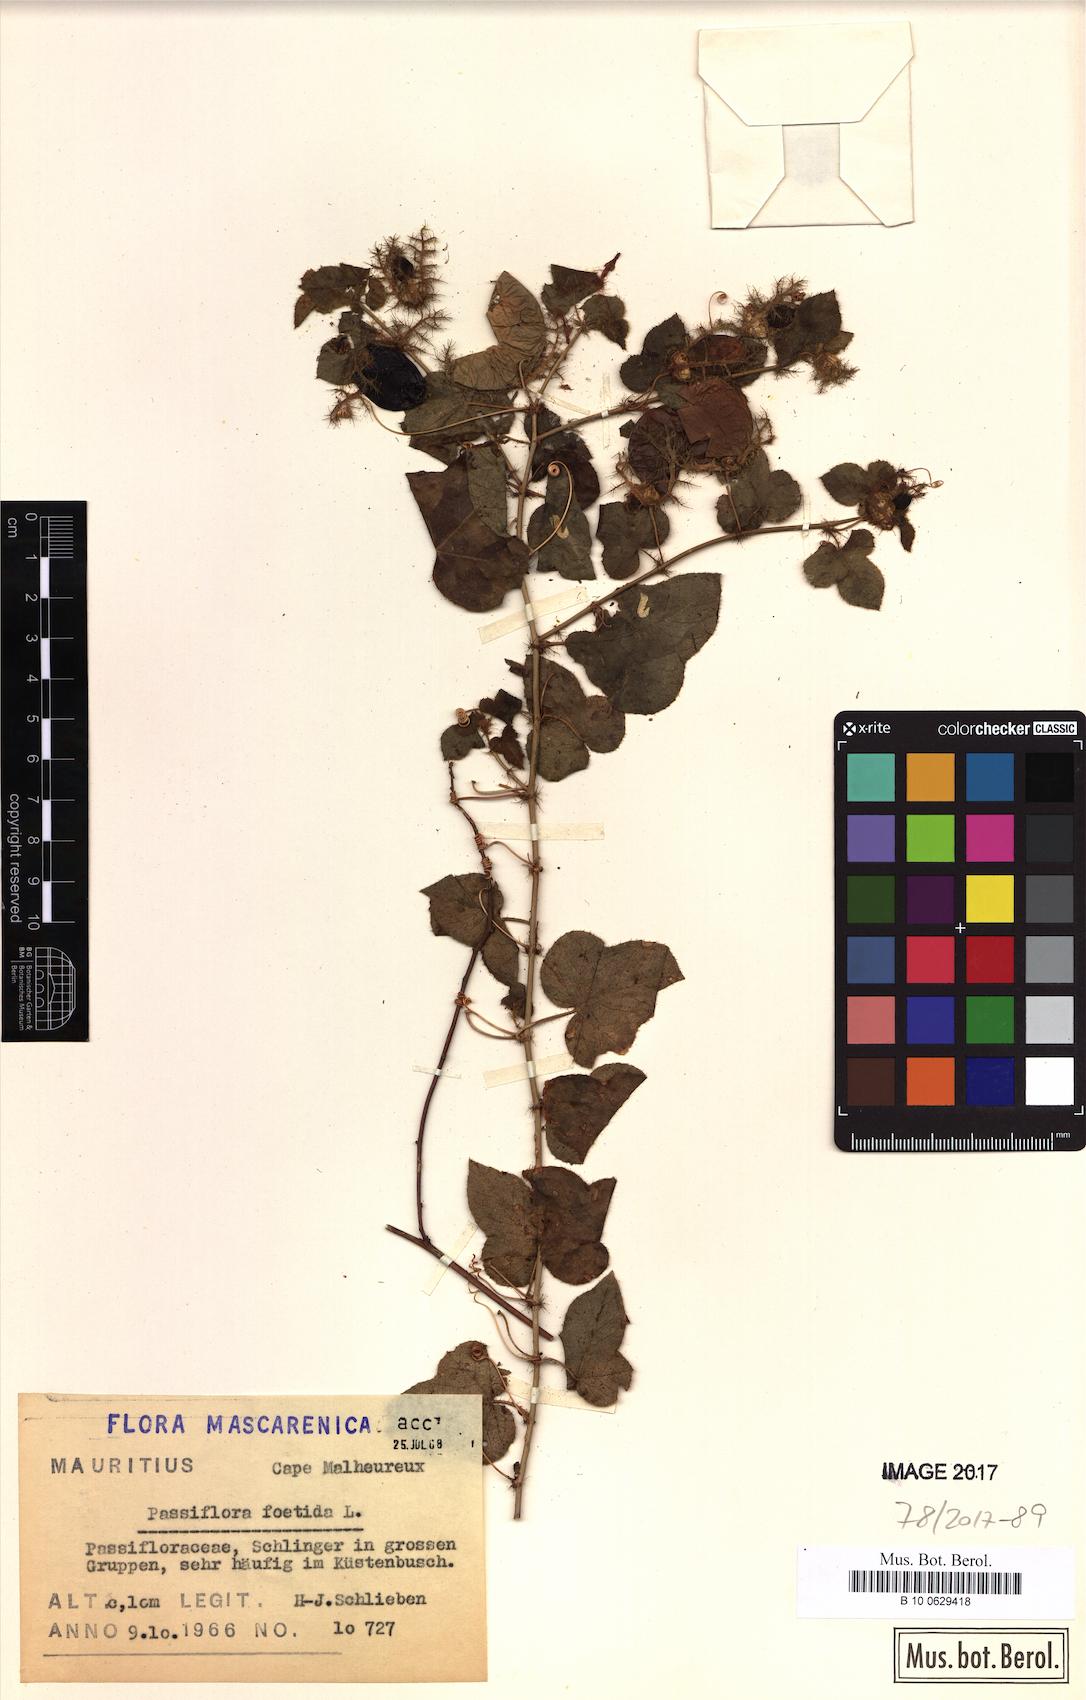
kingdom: Plantae
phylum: Tracheophyta
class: Magnoliopsida
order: Malpighiales
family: Passifloraceae
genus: Passiflora
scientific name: Passiflora foetida
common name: Fetid passionflower
